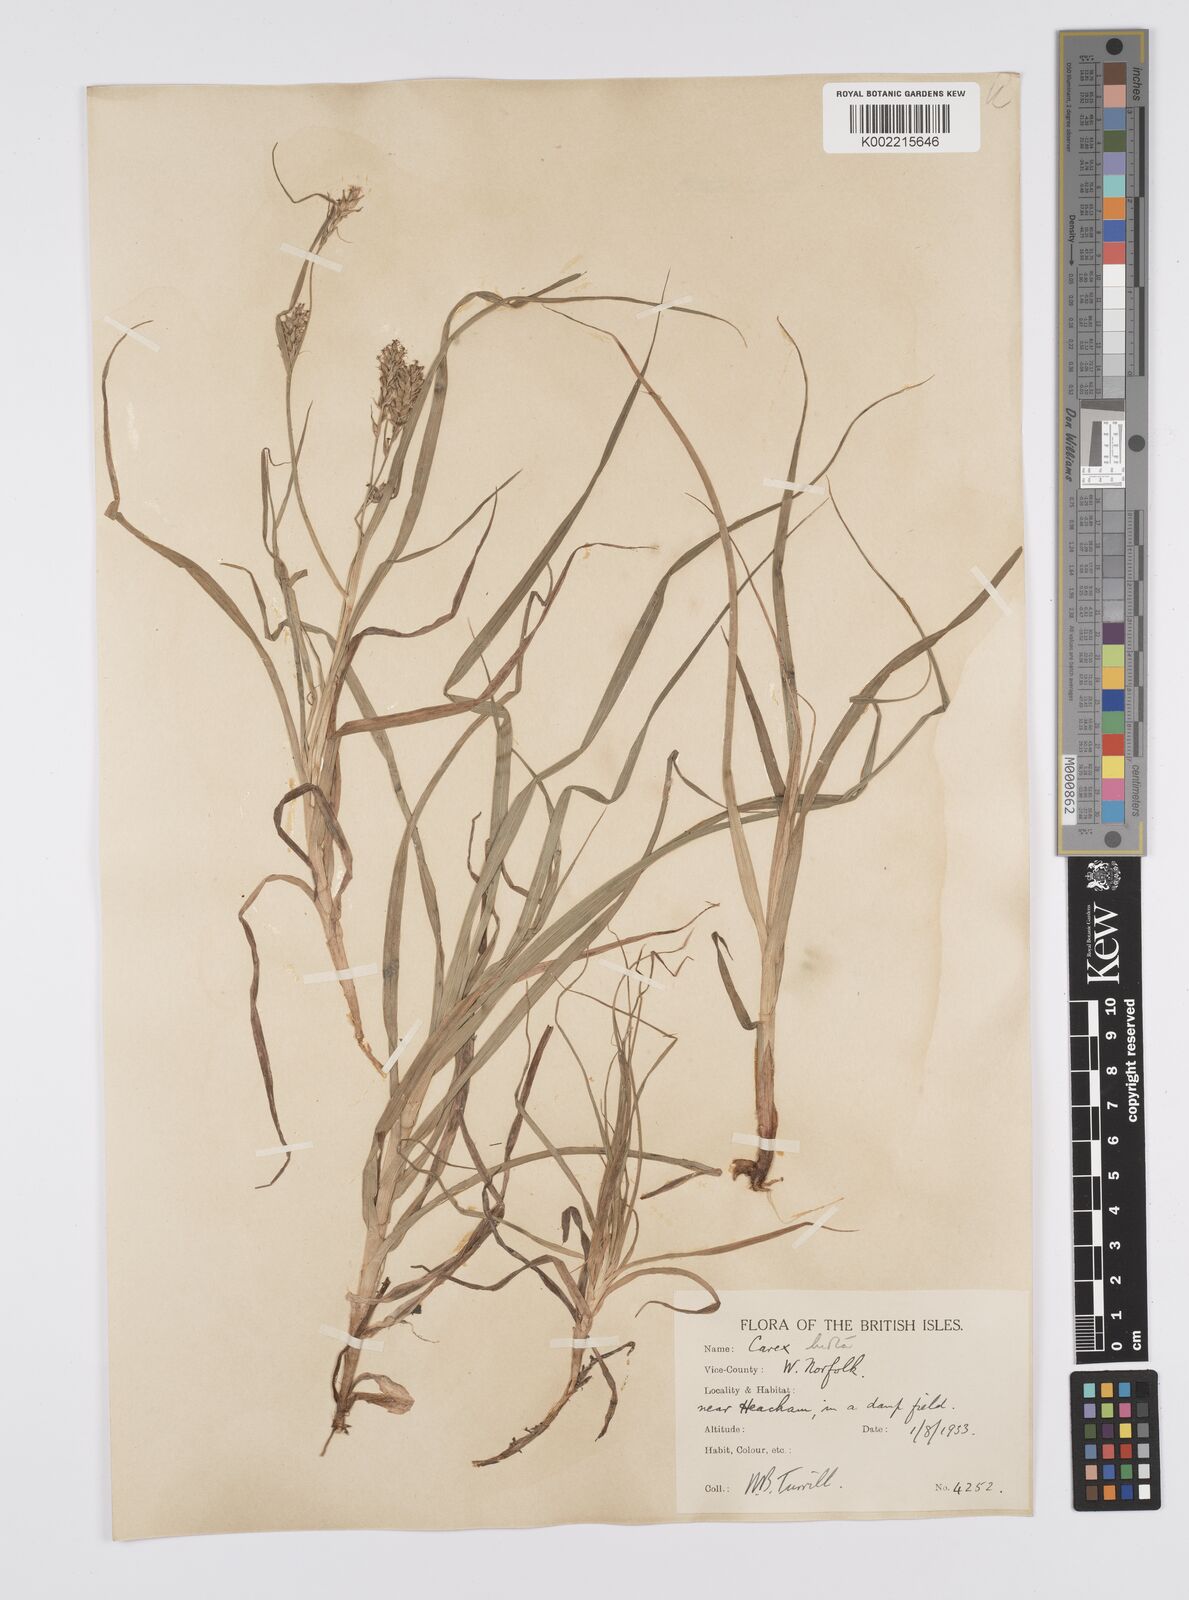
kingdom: Plantae
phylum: Tracheophyta
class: Liliopsida
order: Poales
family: Cyperaceae
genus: Carex
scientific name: Carex hirta
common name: Hairy sedge
